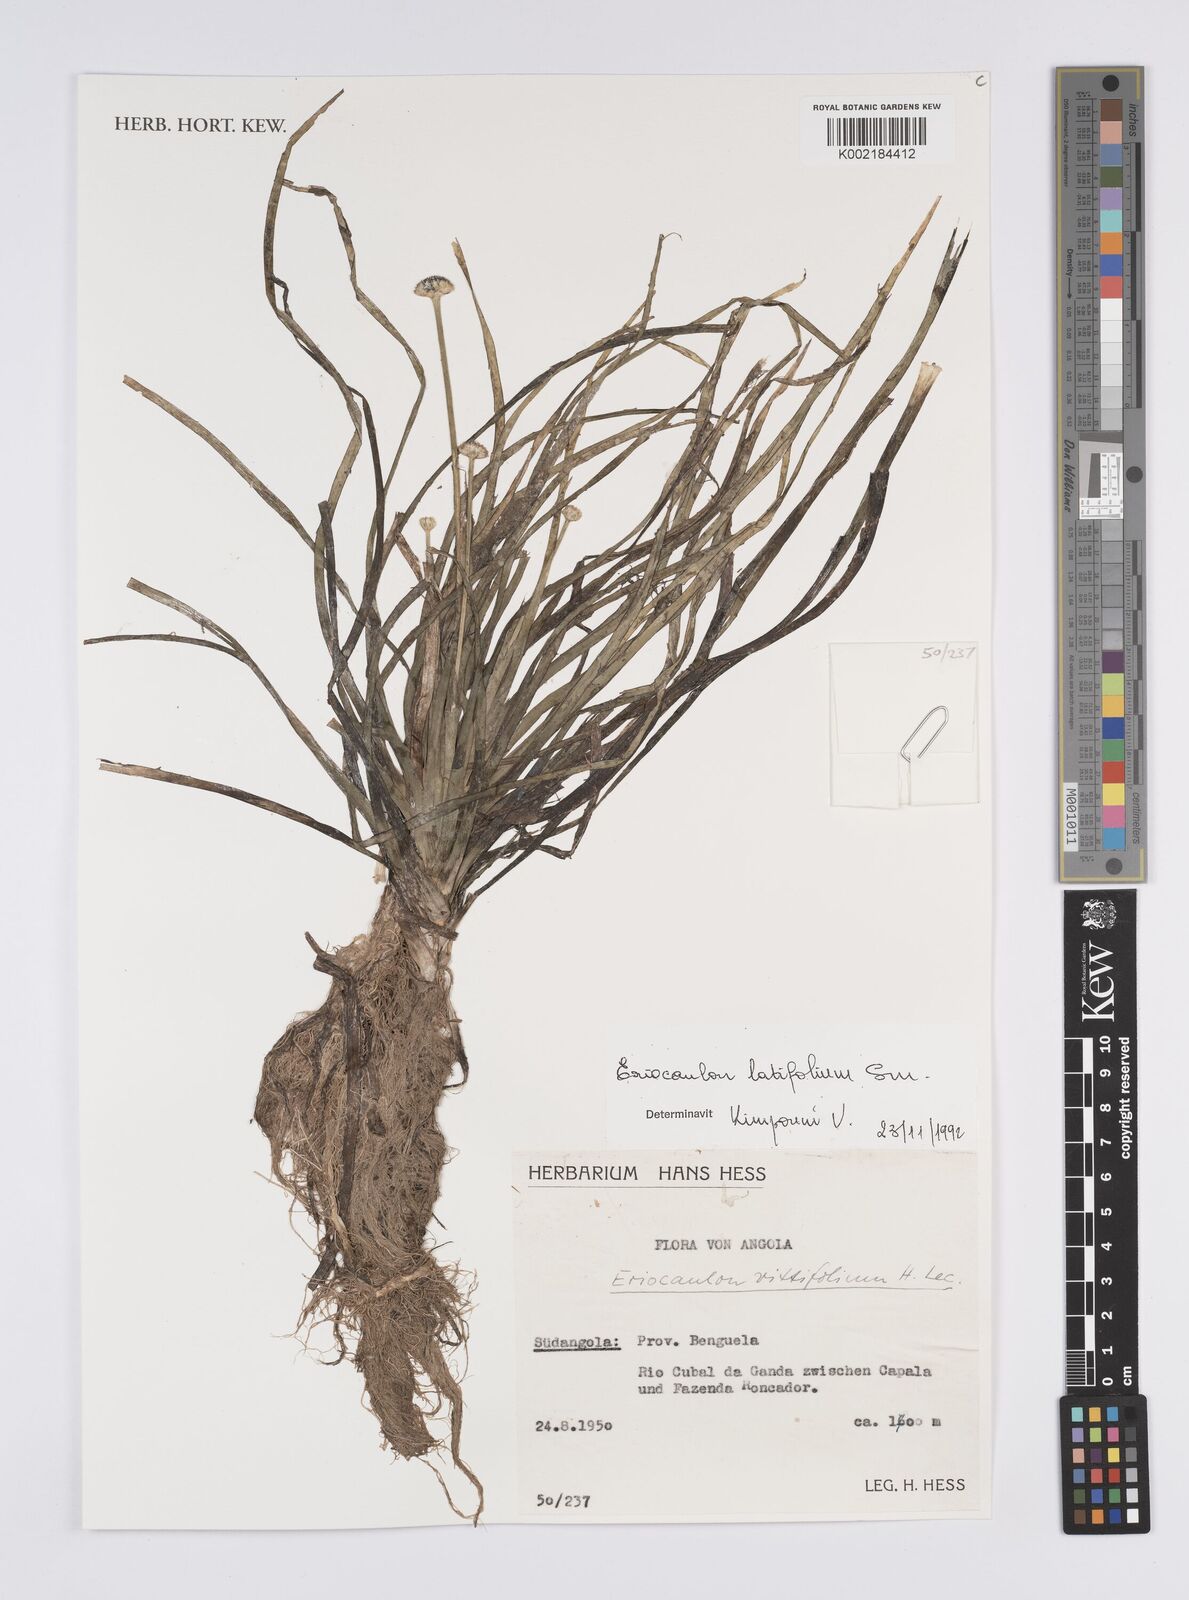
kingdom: Plantae
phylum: Tracheophyta
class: Liliopsida
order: Poales
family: Eriocaulaceae
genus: Eriocaulon
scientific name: Eriocaulon latifolium
